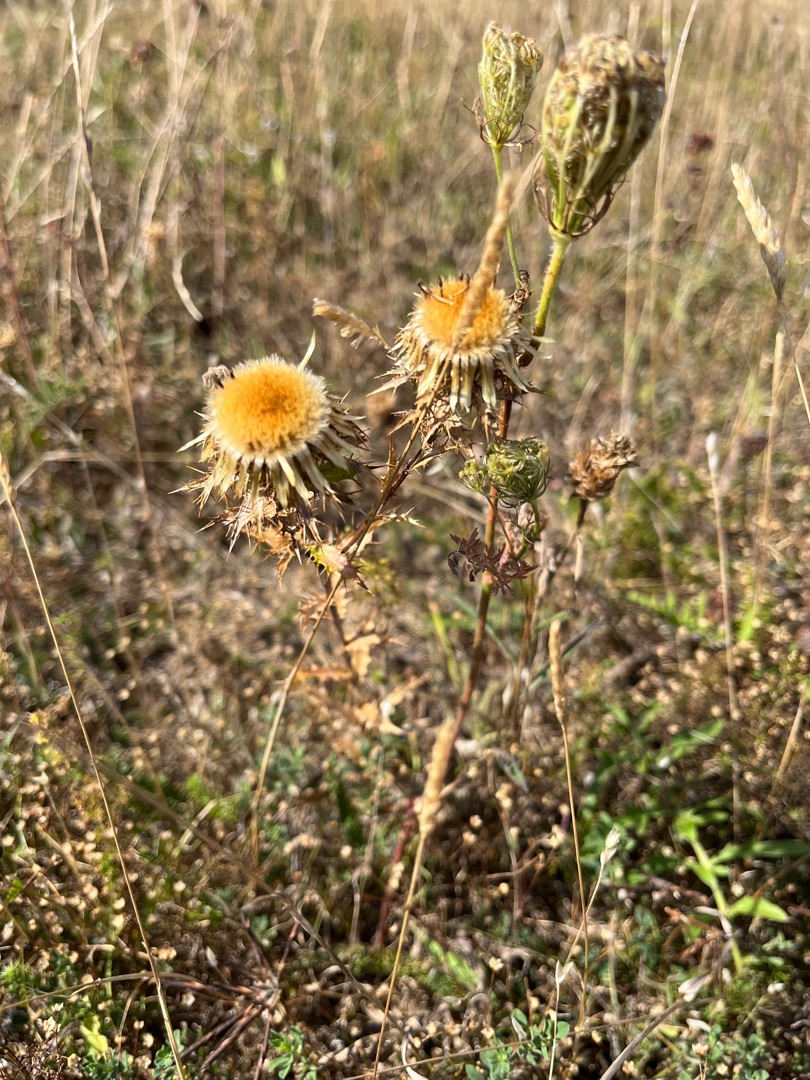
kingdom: Plantae
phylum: Tracheophyta
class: Magnoliopsida
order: Asterales
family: Asteraceae
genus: Carlina
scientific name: Carlina vulgaris
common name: Bakketidsel
